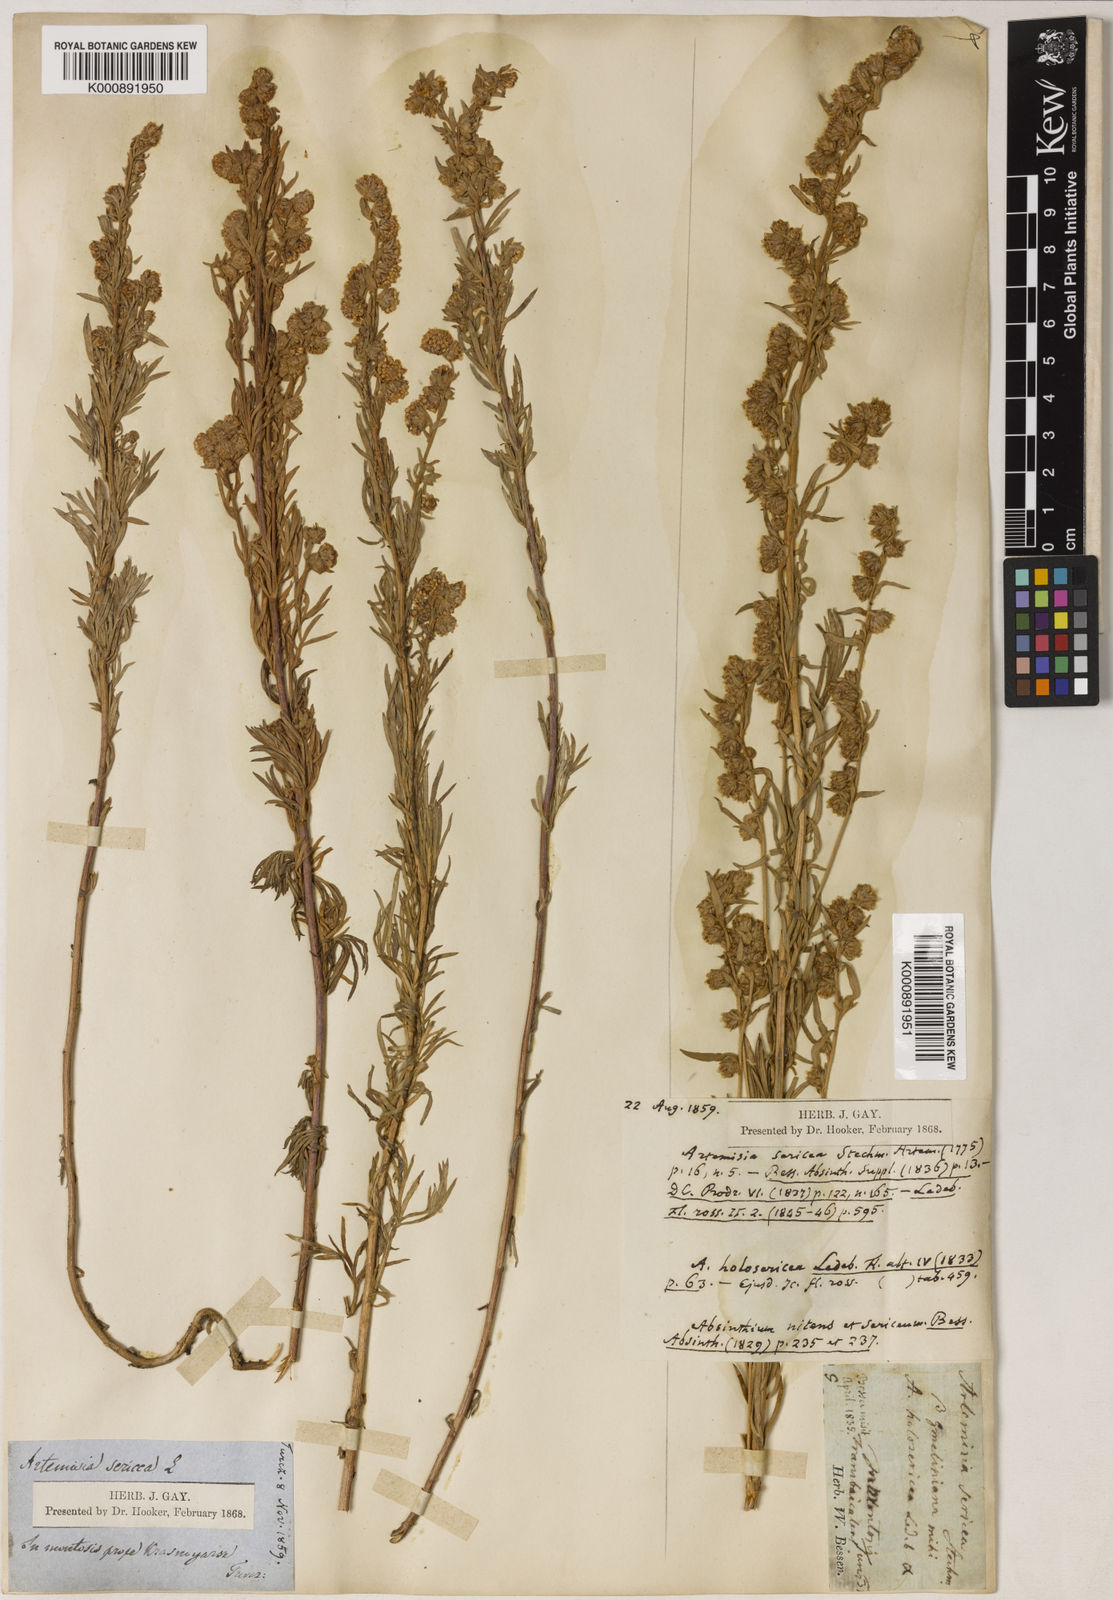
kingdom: Plantae
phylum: Tracheophyta
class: Magnoliopsida
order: Asterales
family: Asteraceae
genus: Artemisia
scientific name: Artemisia sericea
